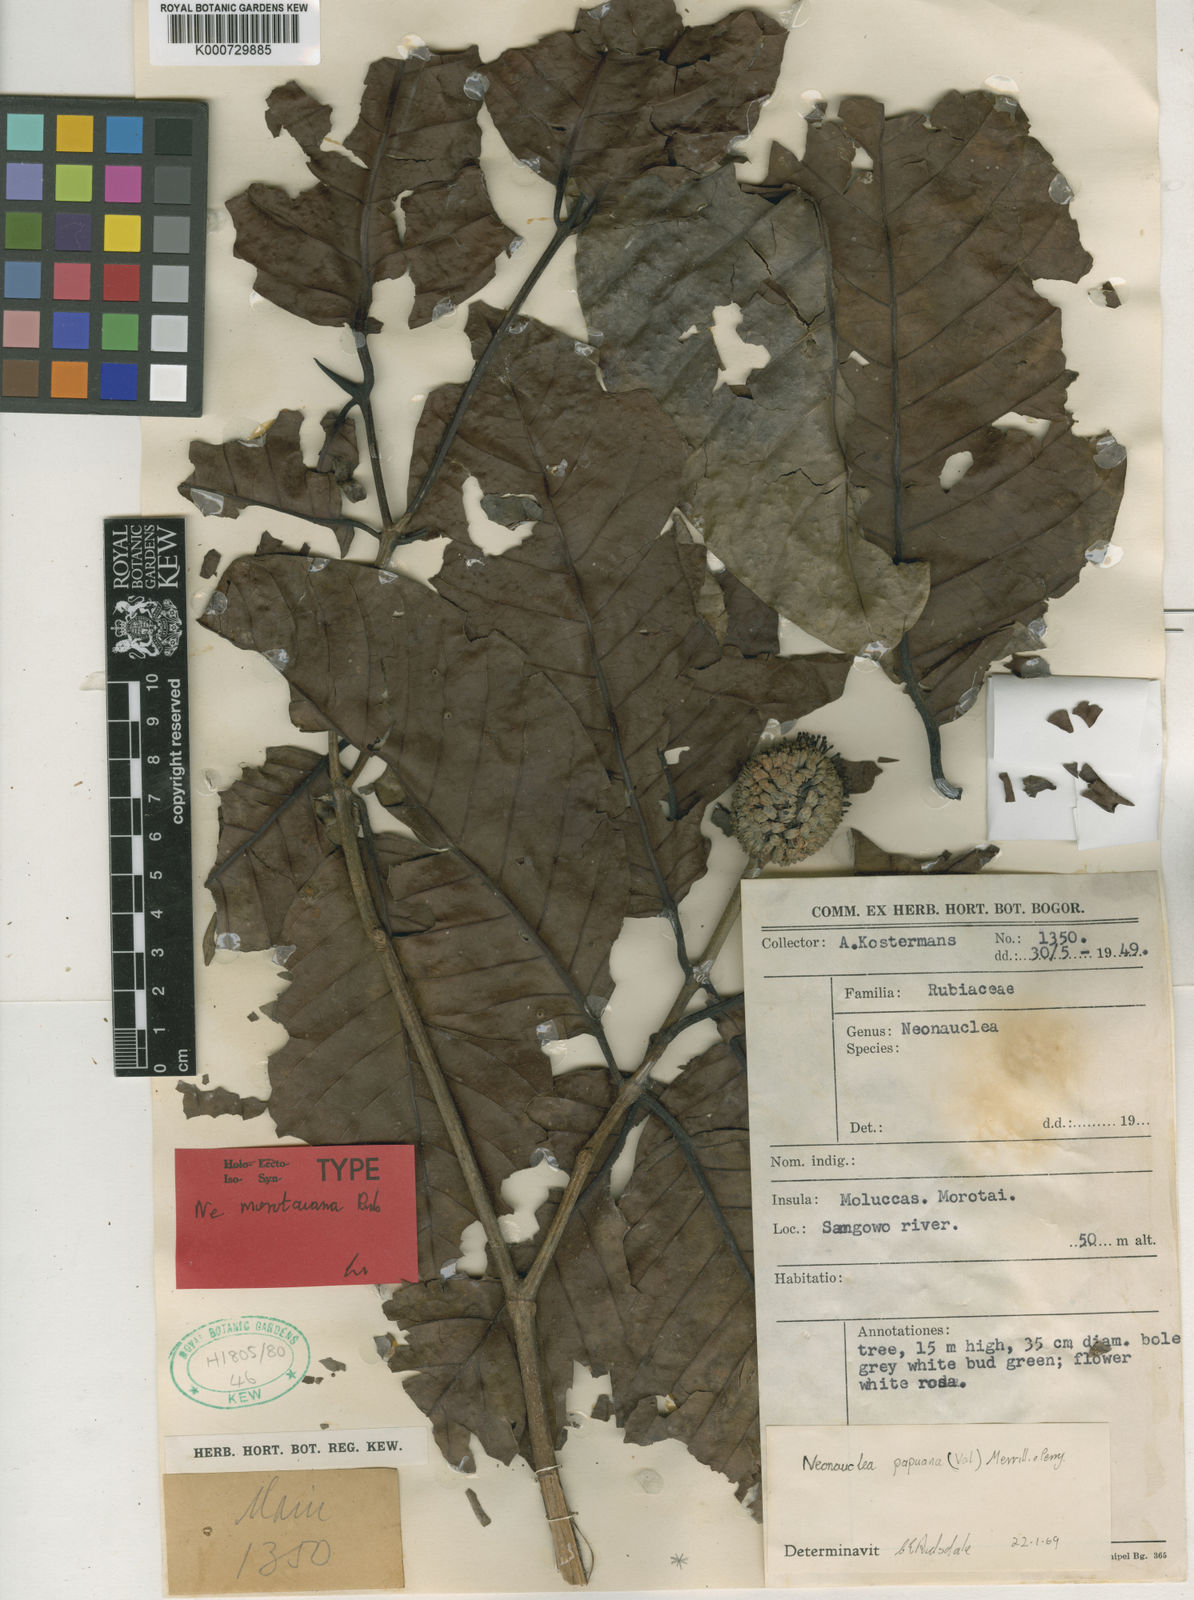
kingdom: Plantae
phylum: Tracheophyta
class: Magnoliopsida
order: Gentianales
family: Rubiaceae
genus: Neonauclea
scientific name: Neonauclea griffithii
